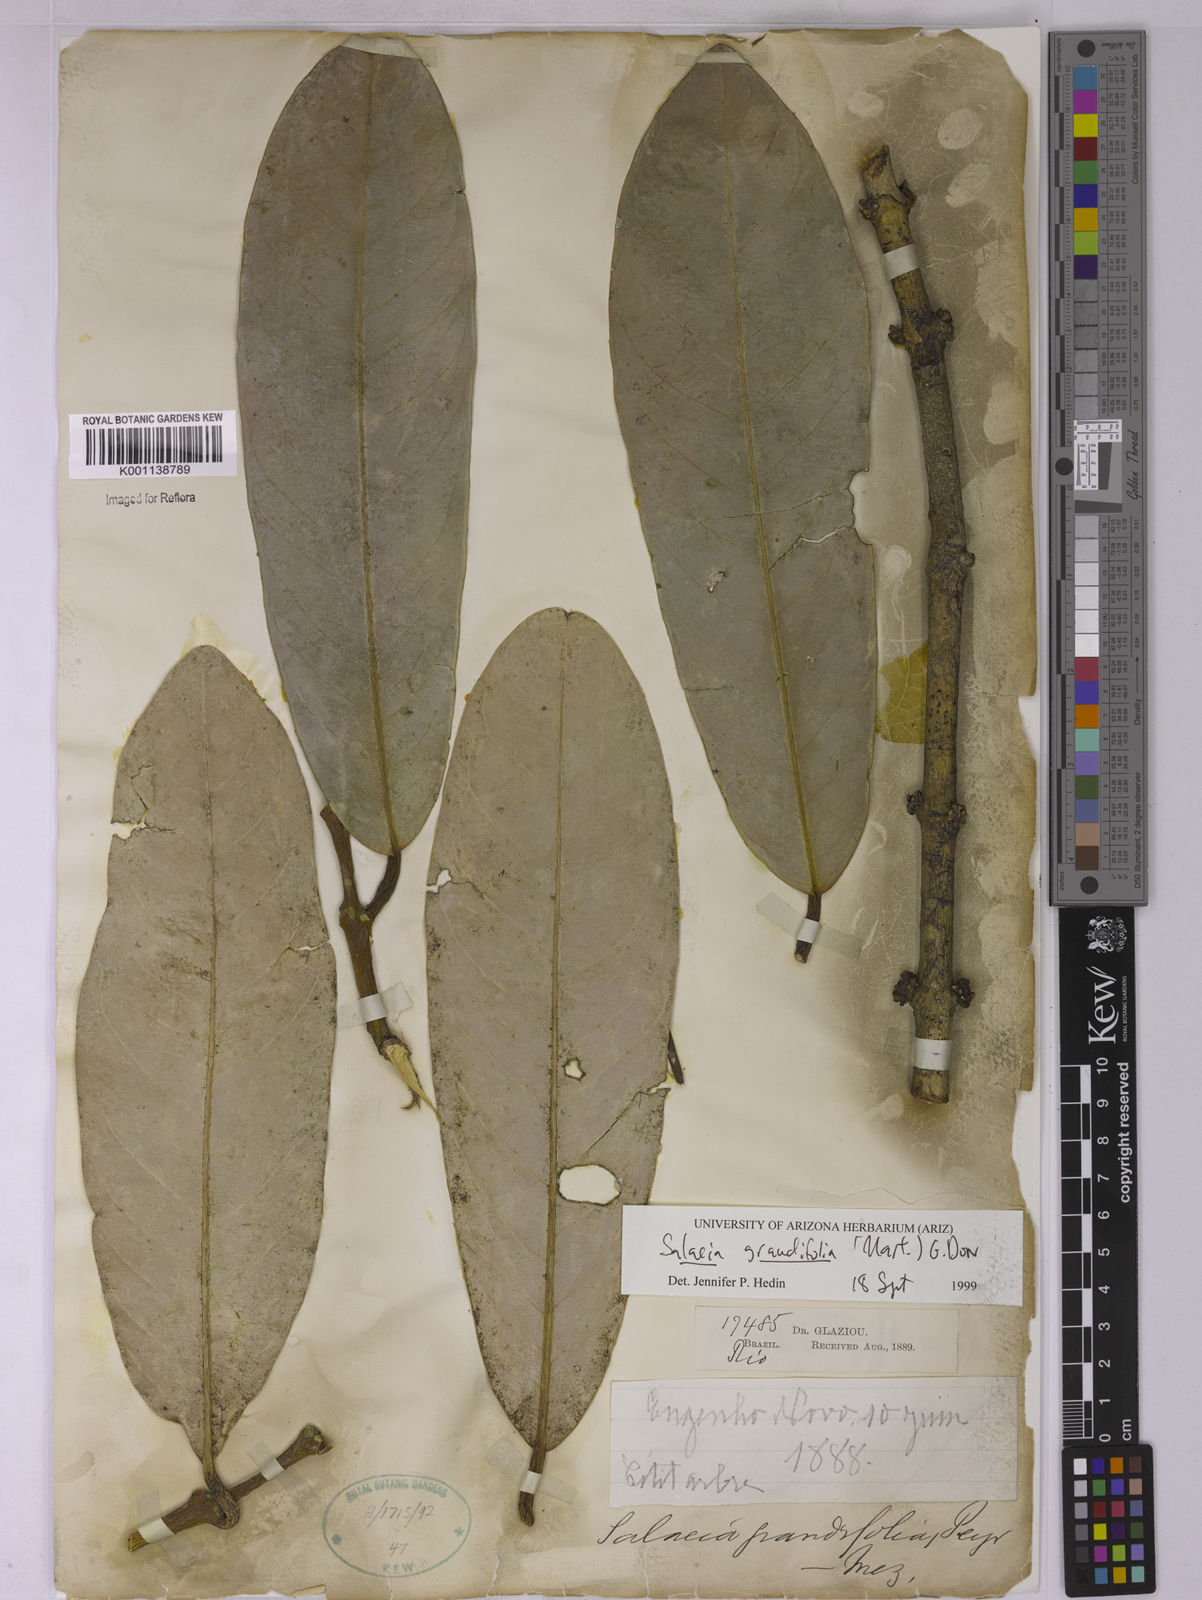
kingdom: Plantae
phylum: Tracheophyta
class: Magnoliopsida
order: Celastrales
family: Celastraceae
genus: Salacia
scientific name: Salacia grandiflora
